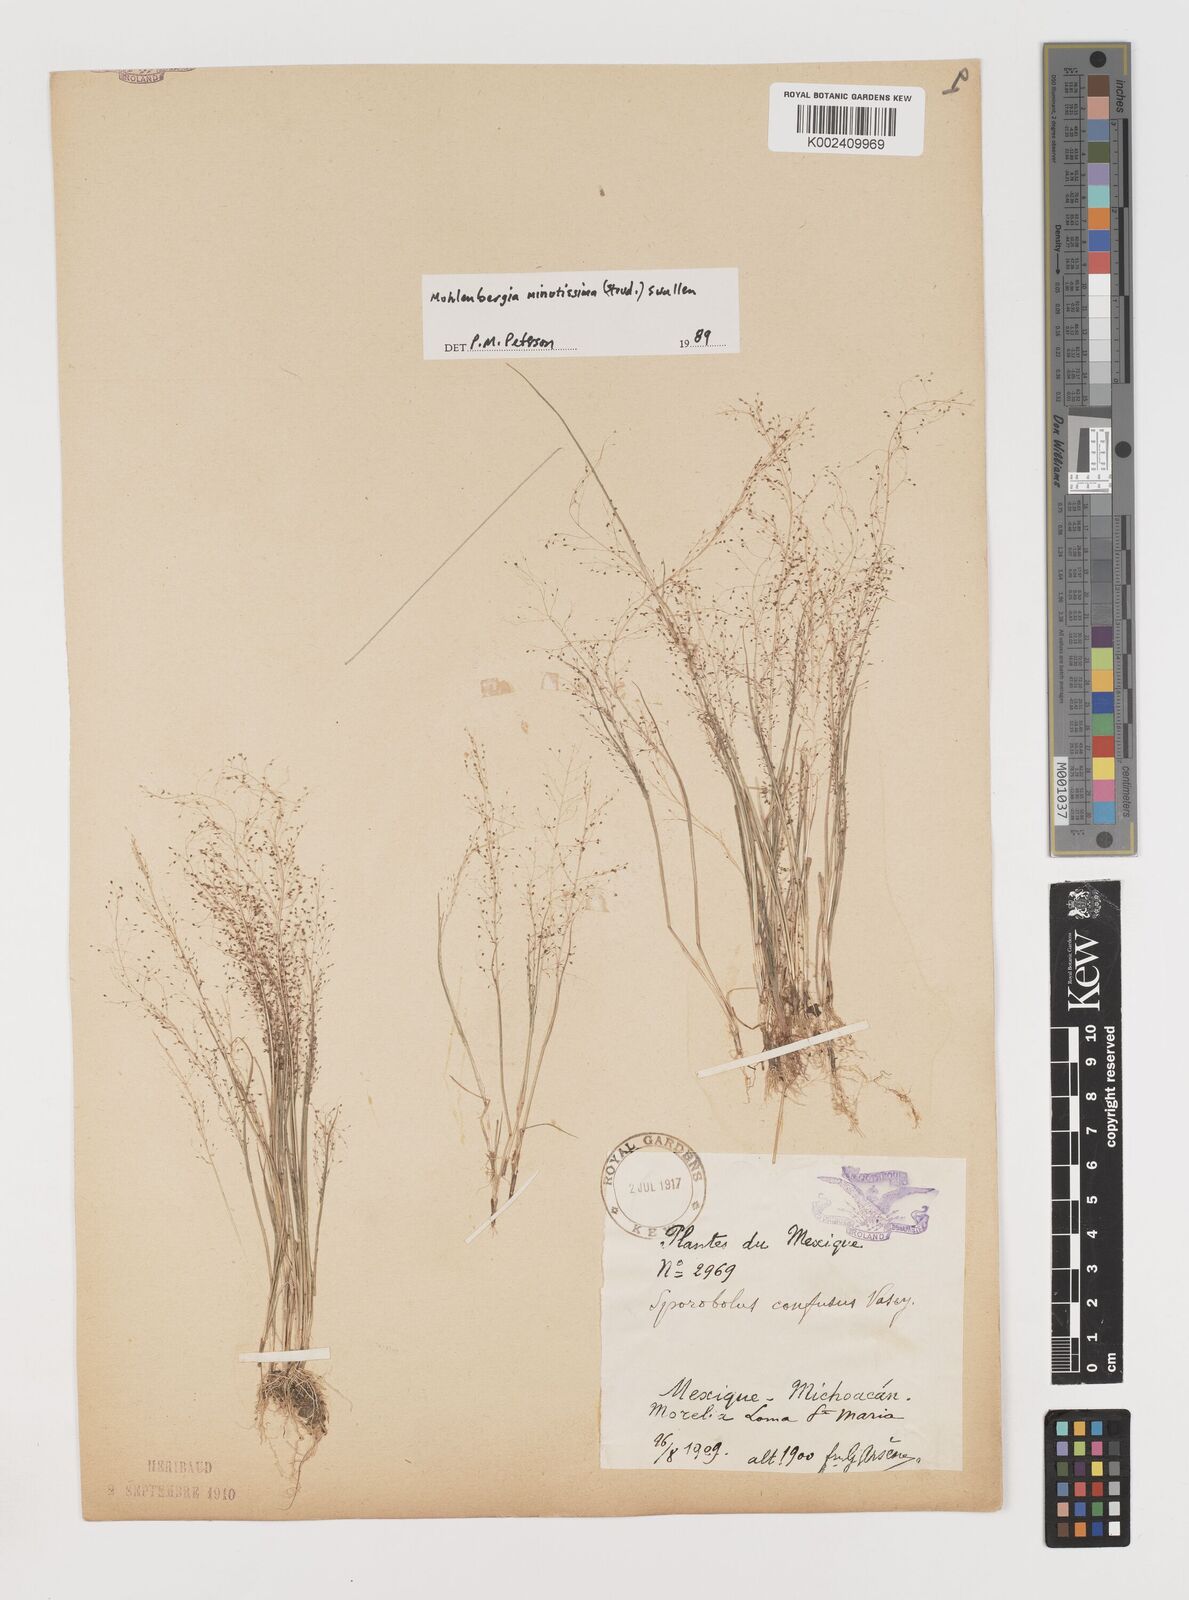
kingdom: Plantae
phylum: Tracheophyta
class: Liliopsida
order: Poales
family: Poaceae
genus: Muhlenbergia
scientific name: Muhlenbergia minutissima
